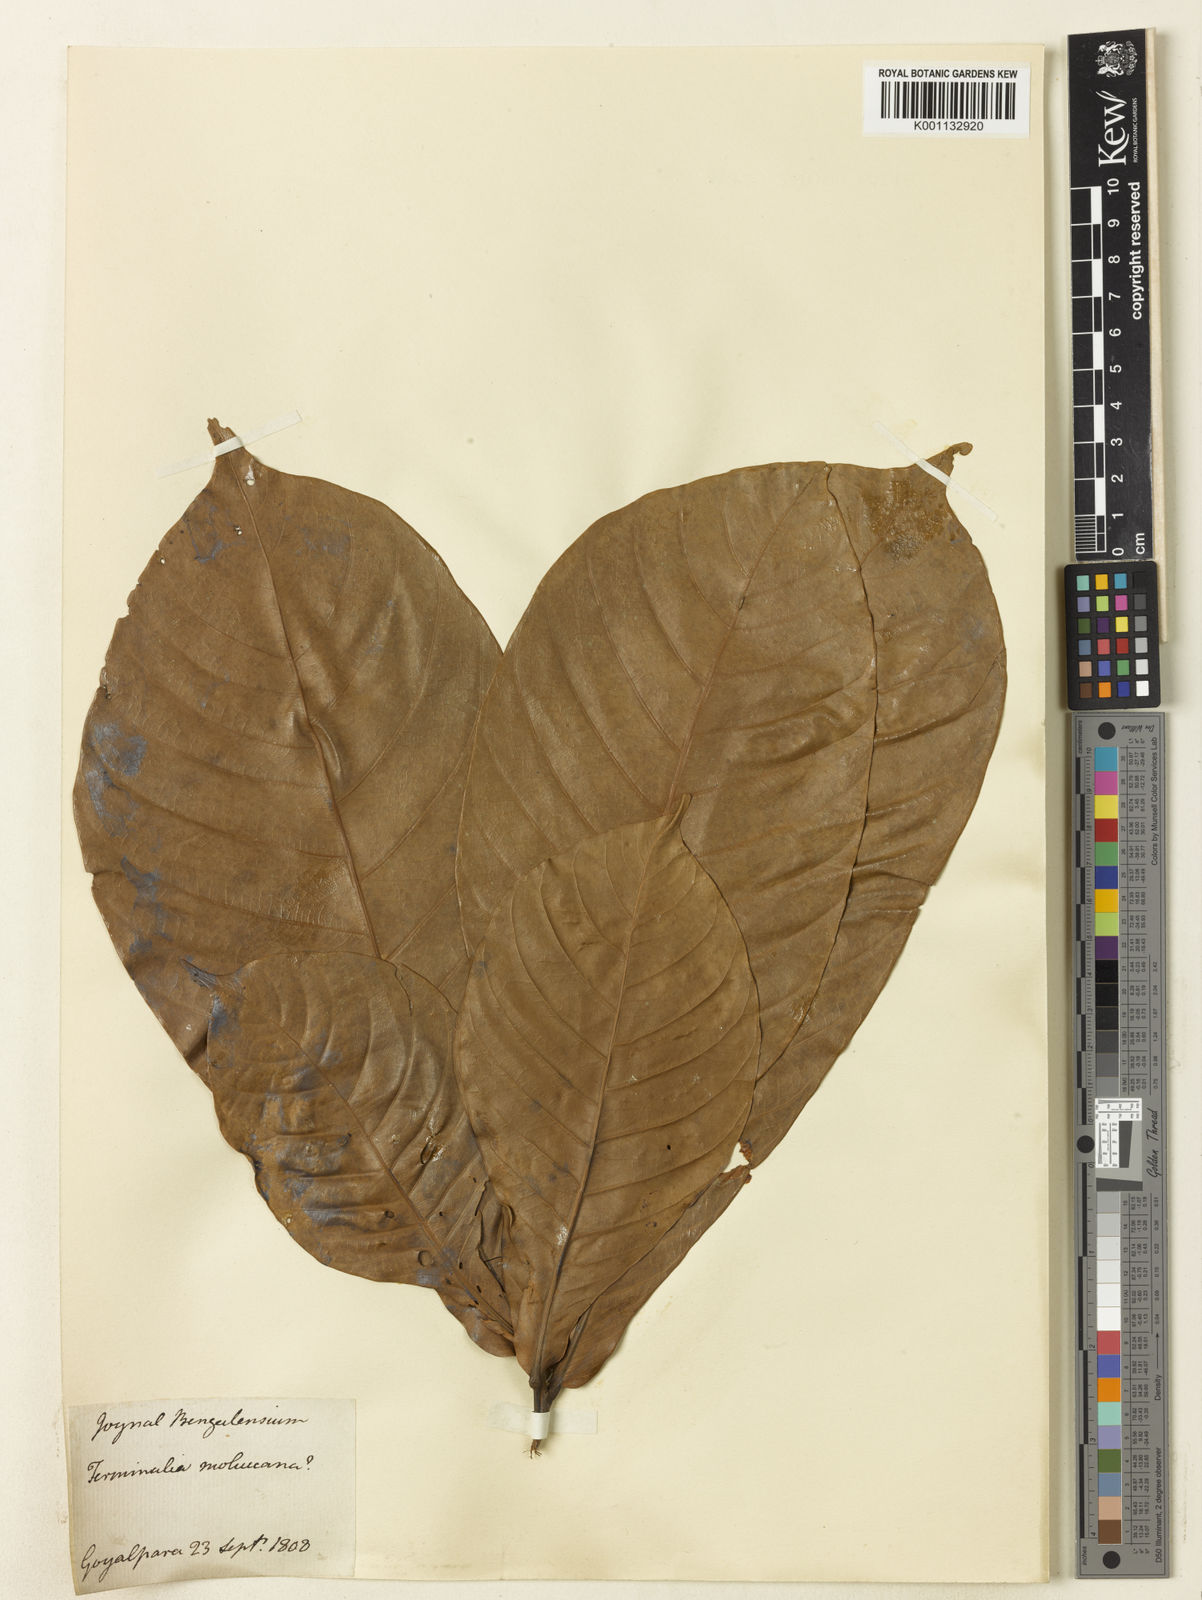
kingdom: Plantae
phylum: Tracheophyta
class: Magnoliopsida
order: Myrtales
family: Combretaceae
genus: Terminalia
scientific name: Terminalia catappa
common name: Tropical almond
